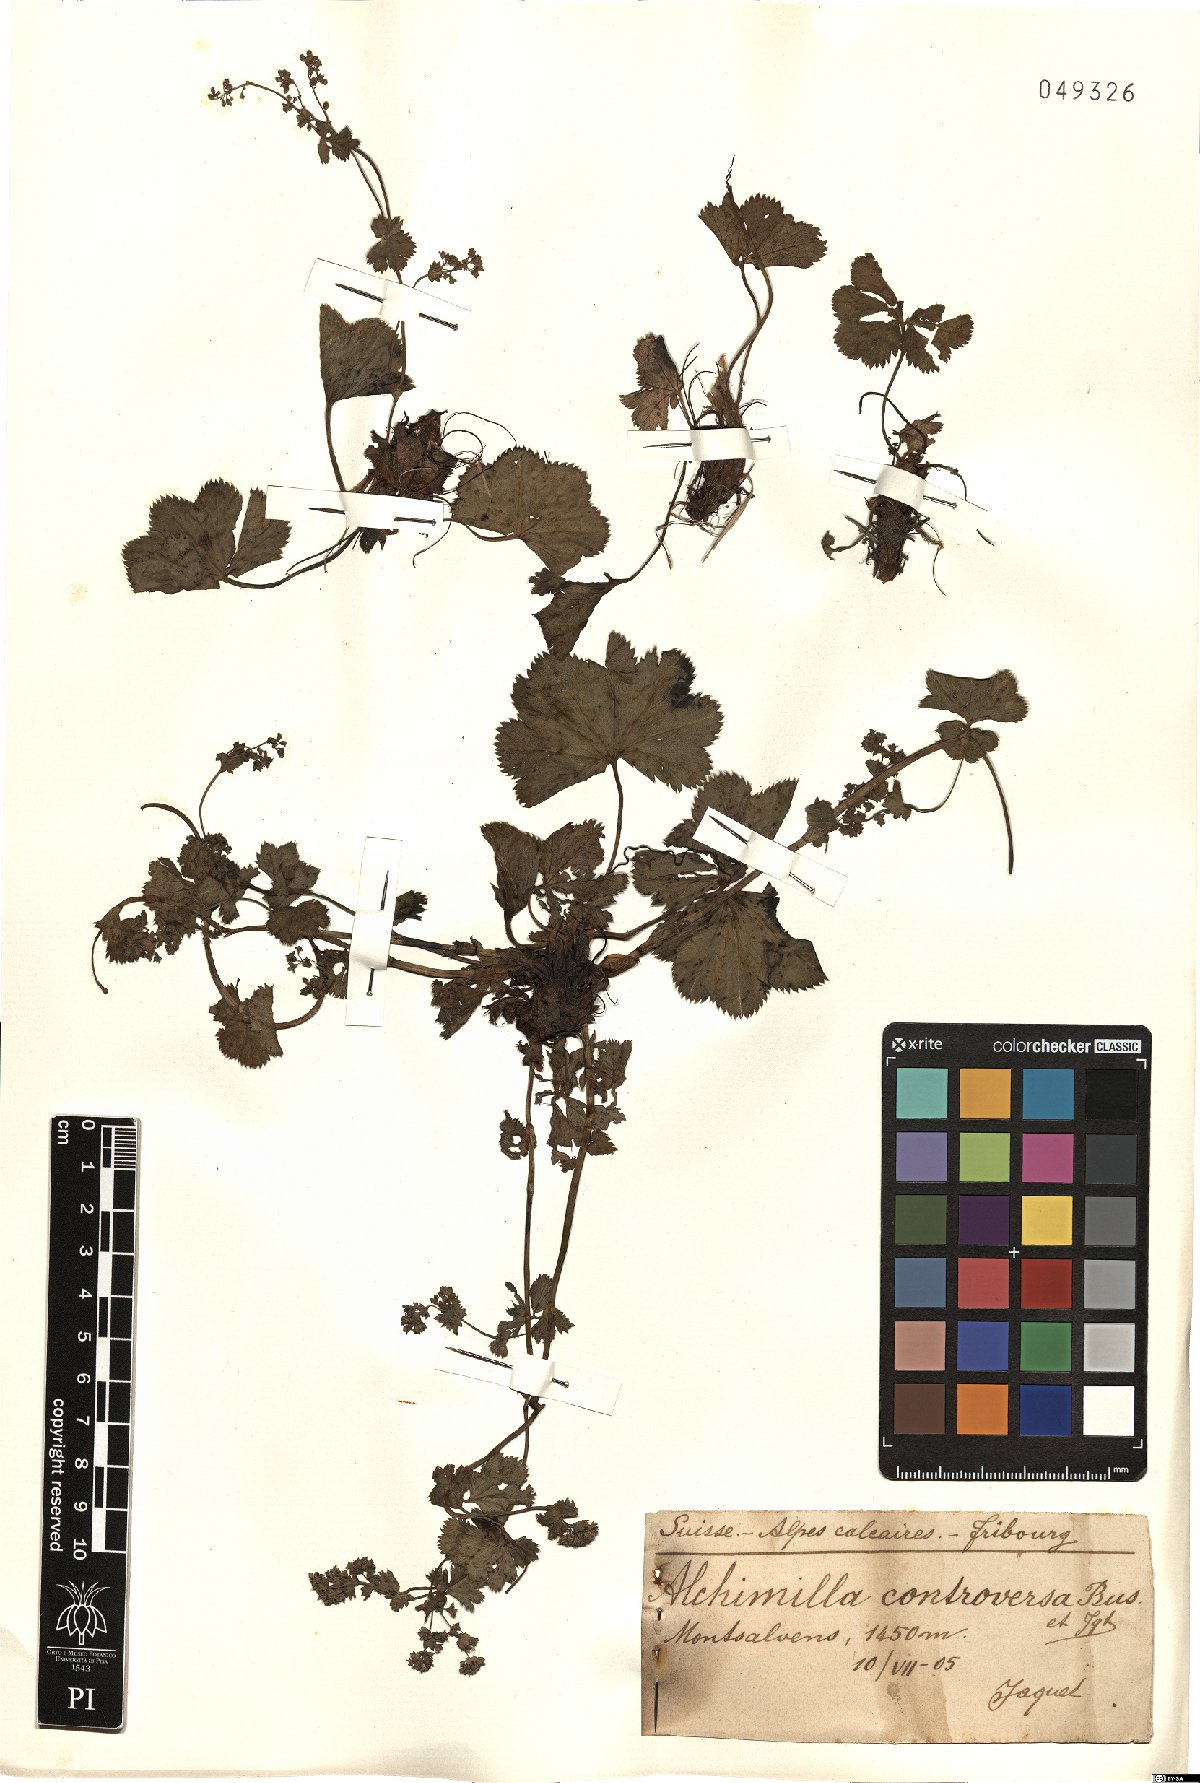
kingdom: Plantae
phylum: Tracheophyta
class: Magnoliopsida
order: Rosales
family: Rosaceae
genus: Alchemilla
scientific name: Alchemilla controversa
